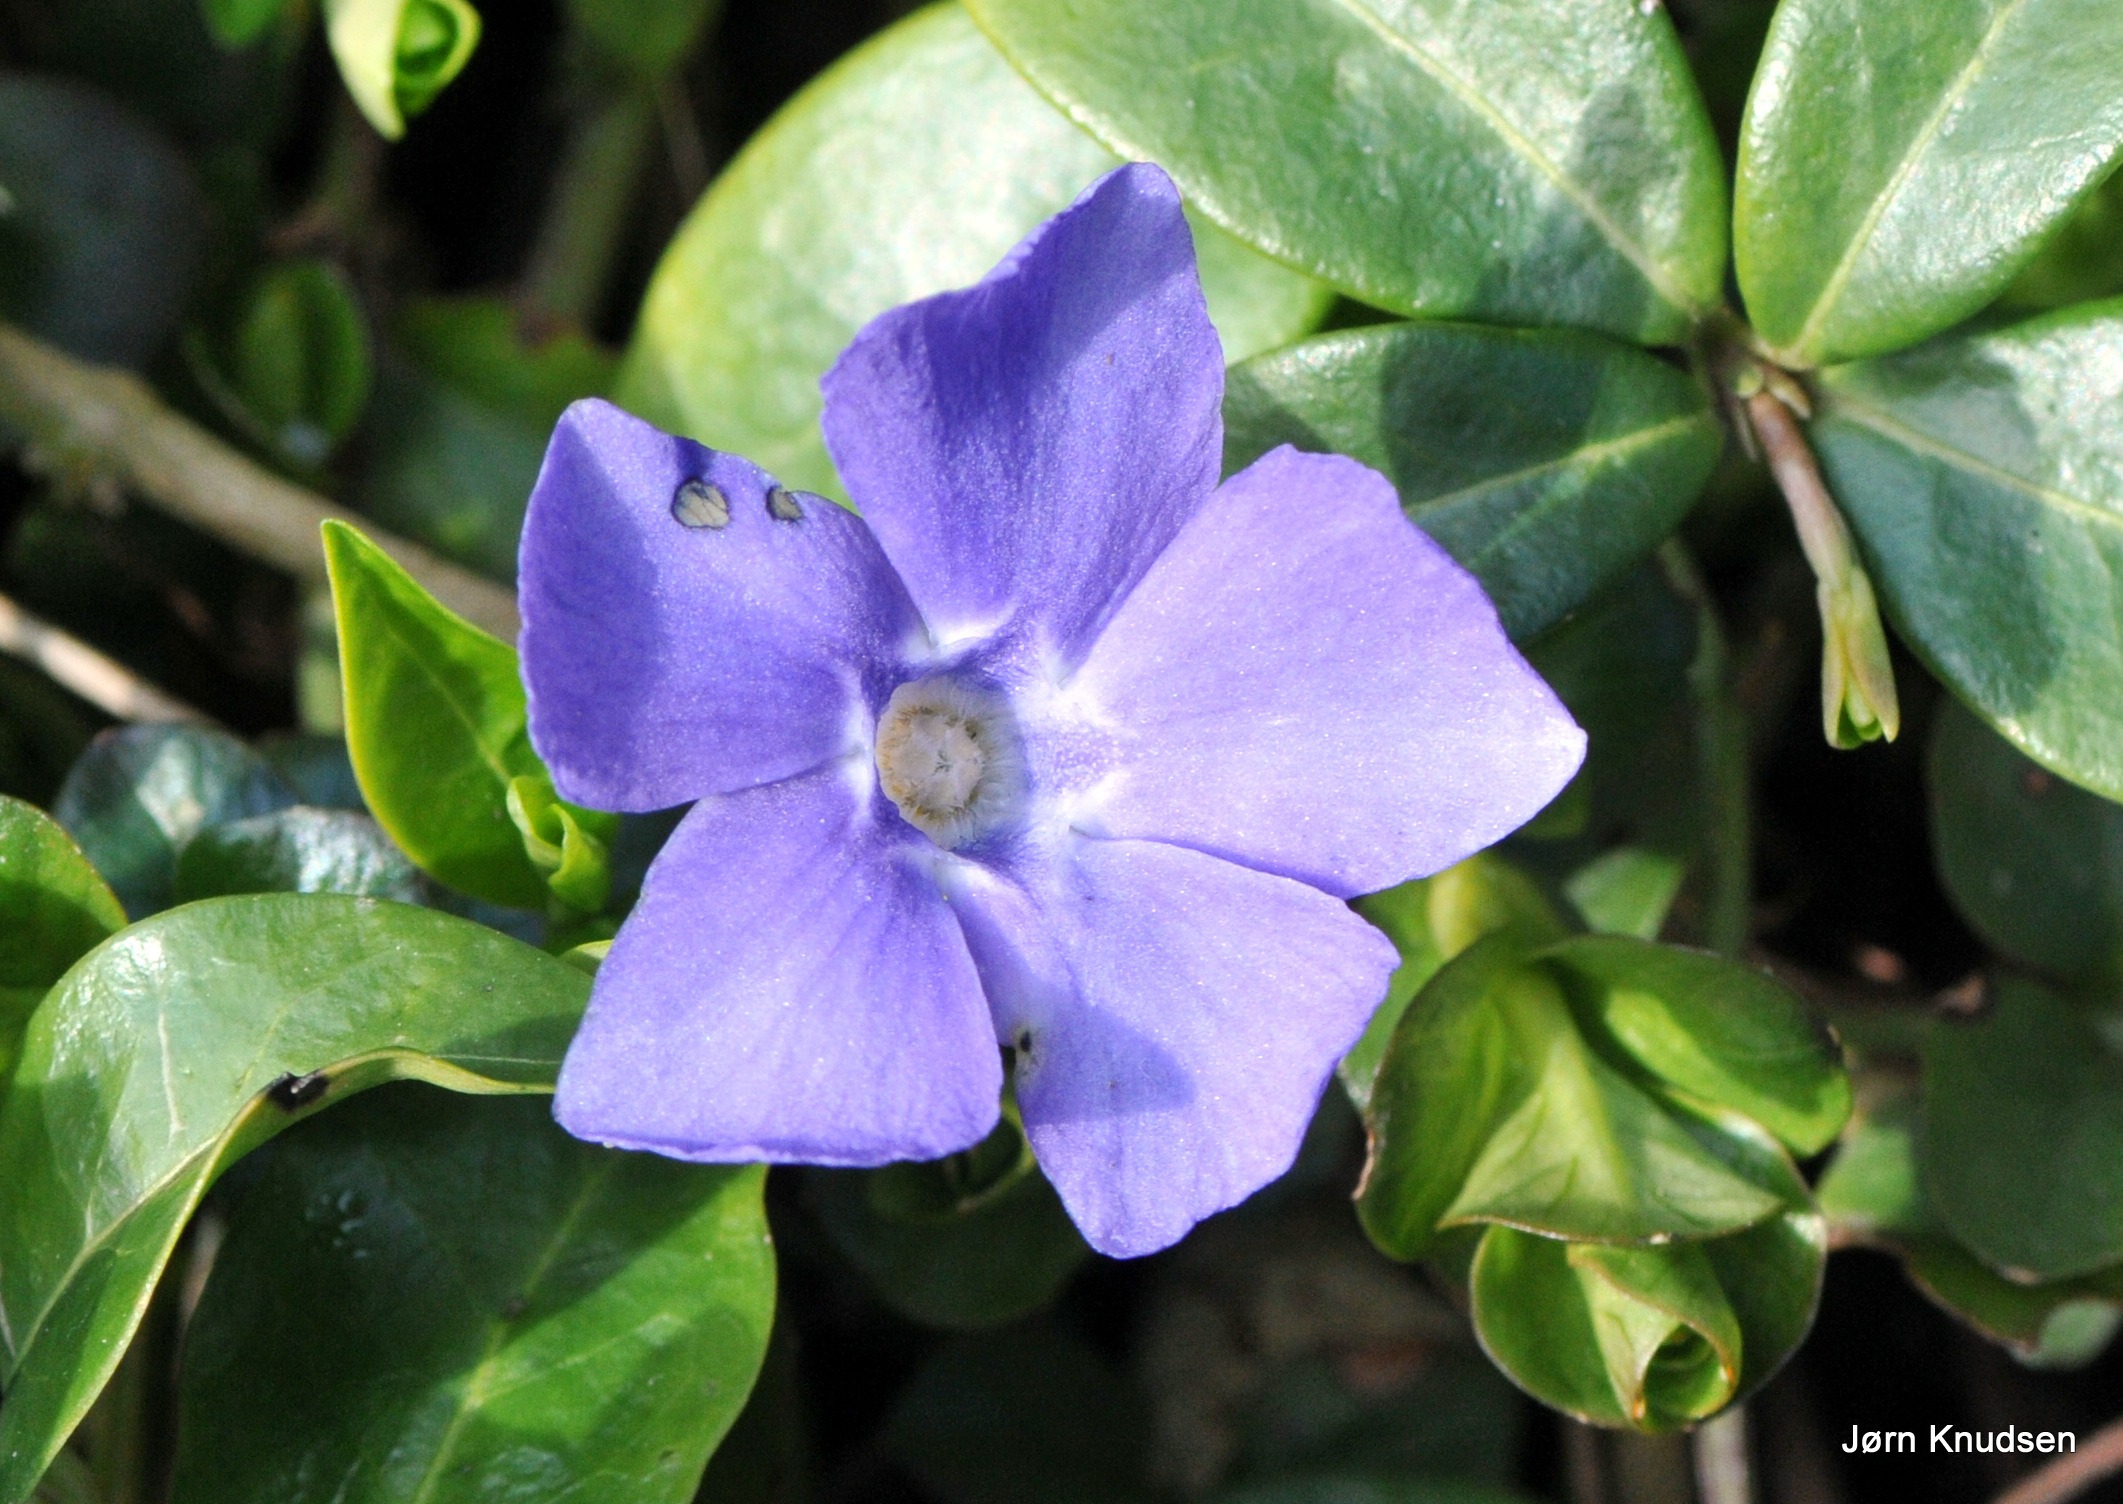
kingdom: Plantae
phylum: Tracheophyta
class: Magnoliopsida
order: Gentianales
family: Apocynaceae
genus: Vinca
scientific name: Vinca minor
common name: Liden singrøn
